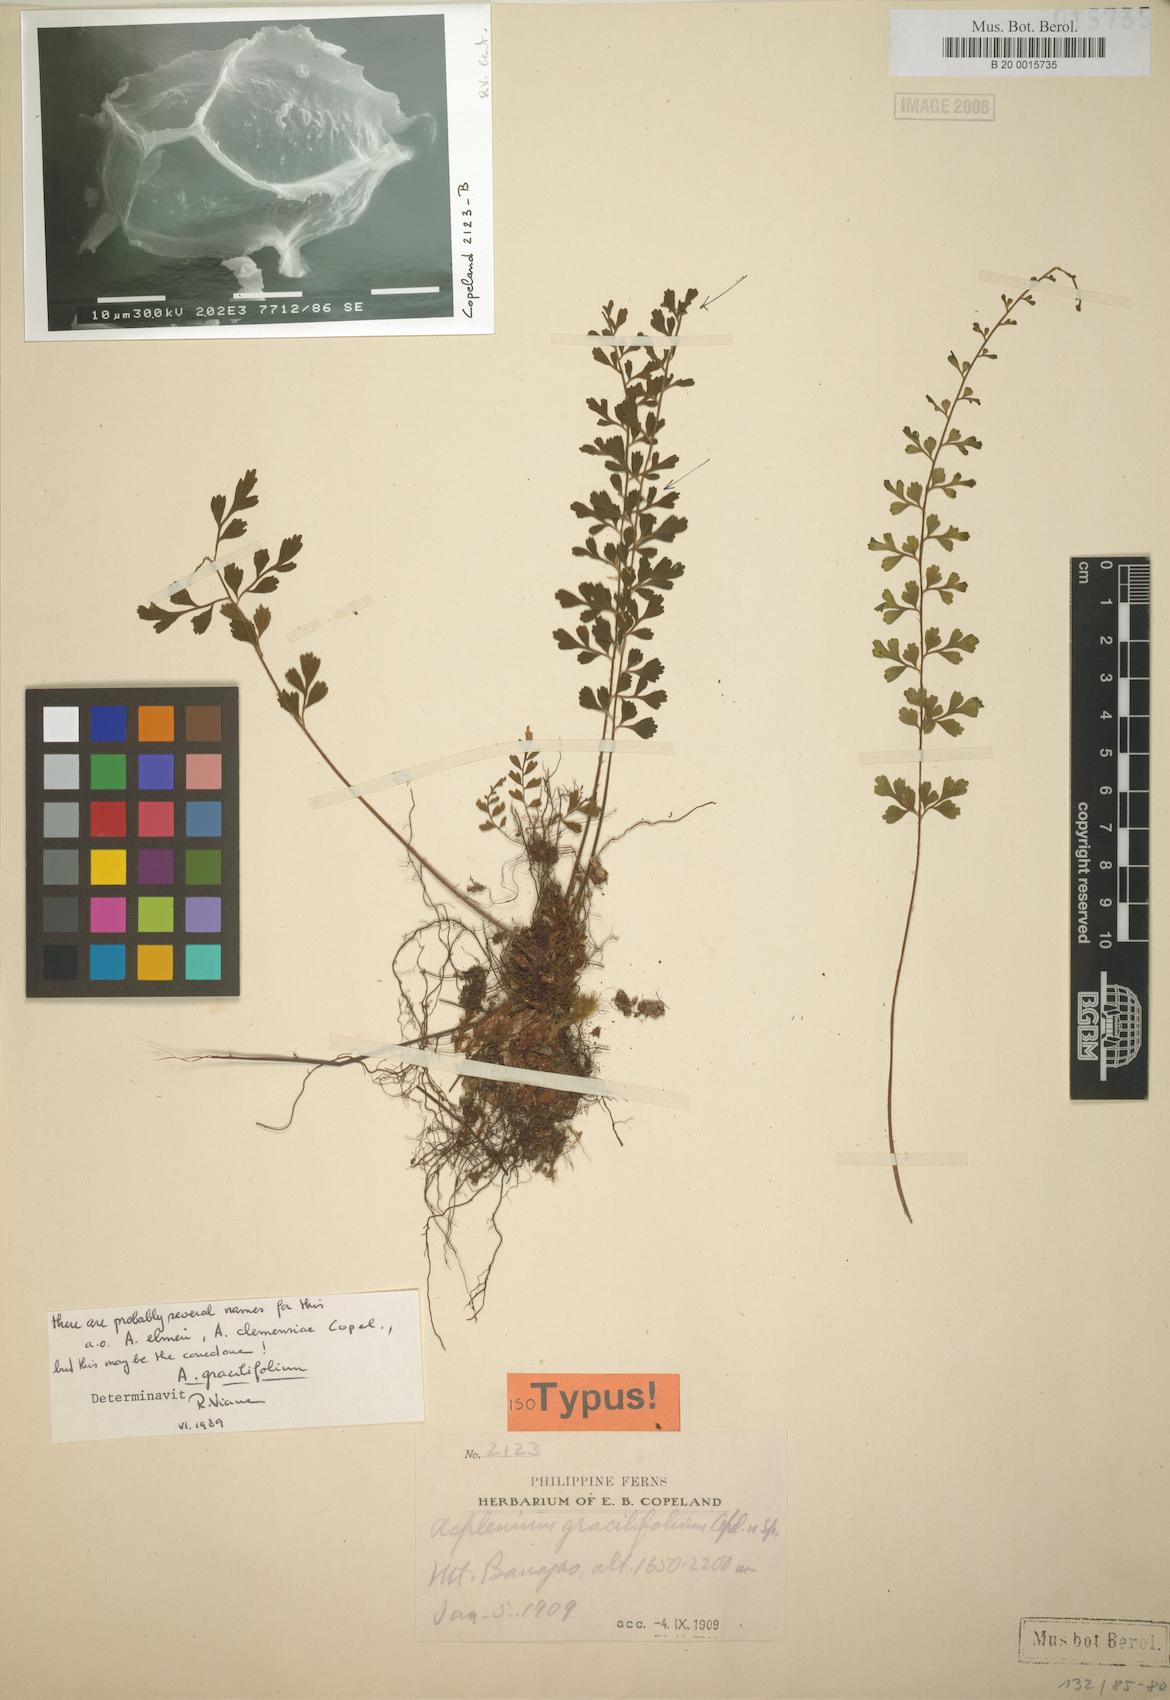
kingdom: Plantae
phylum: Tracheophyta
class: Polypodiopsida
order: Polypodiales
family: Aspleniaceae
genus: Asplenium
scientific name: Asplenium gracilifolium
